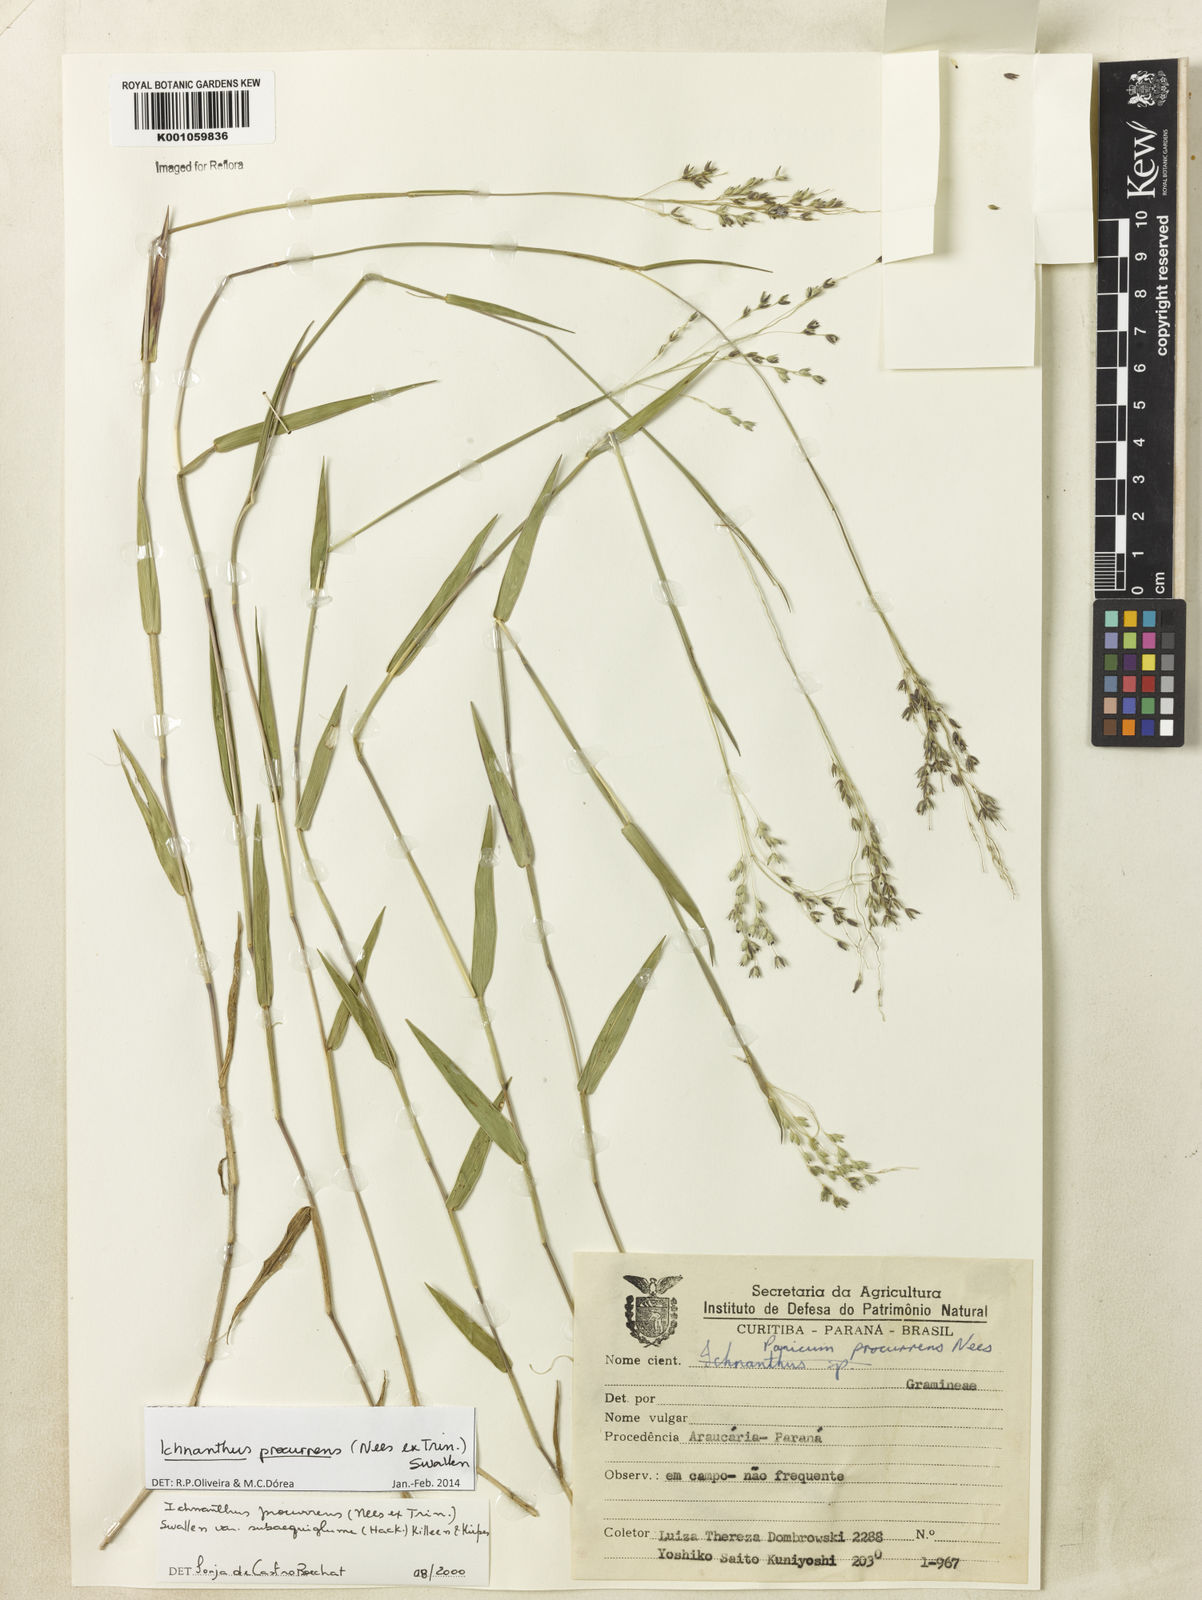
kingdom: Plantae
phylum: Tracheophyta
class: Liliopsida
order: Poales
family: Poaceae
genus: Oedochloa
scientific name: Oedochloa procurrens
